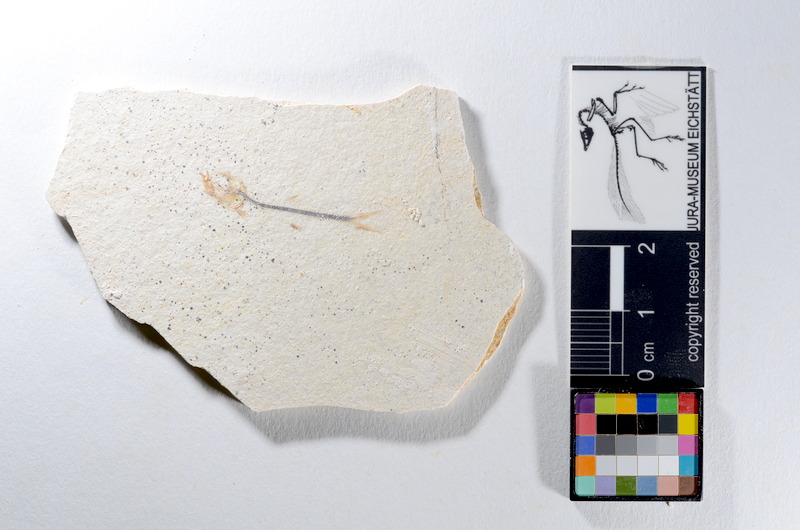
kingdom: Animalia
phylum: Chordata
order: Salmoniformes
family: Orthogonikleithridae
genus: Orthogonikleithrus
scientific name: Orthogonikleithrus hoelli
